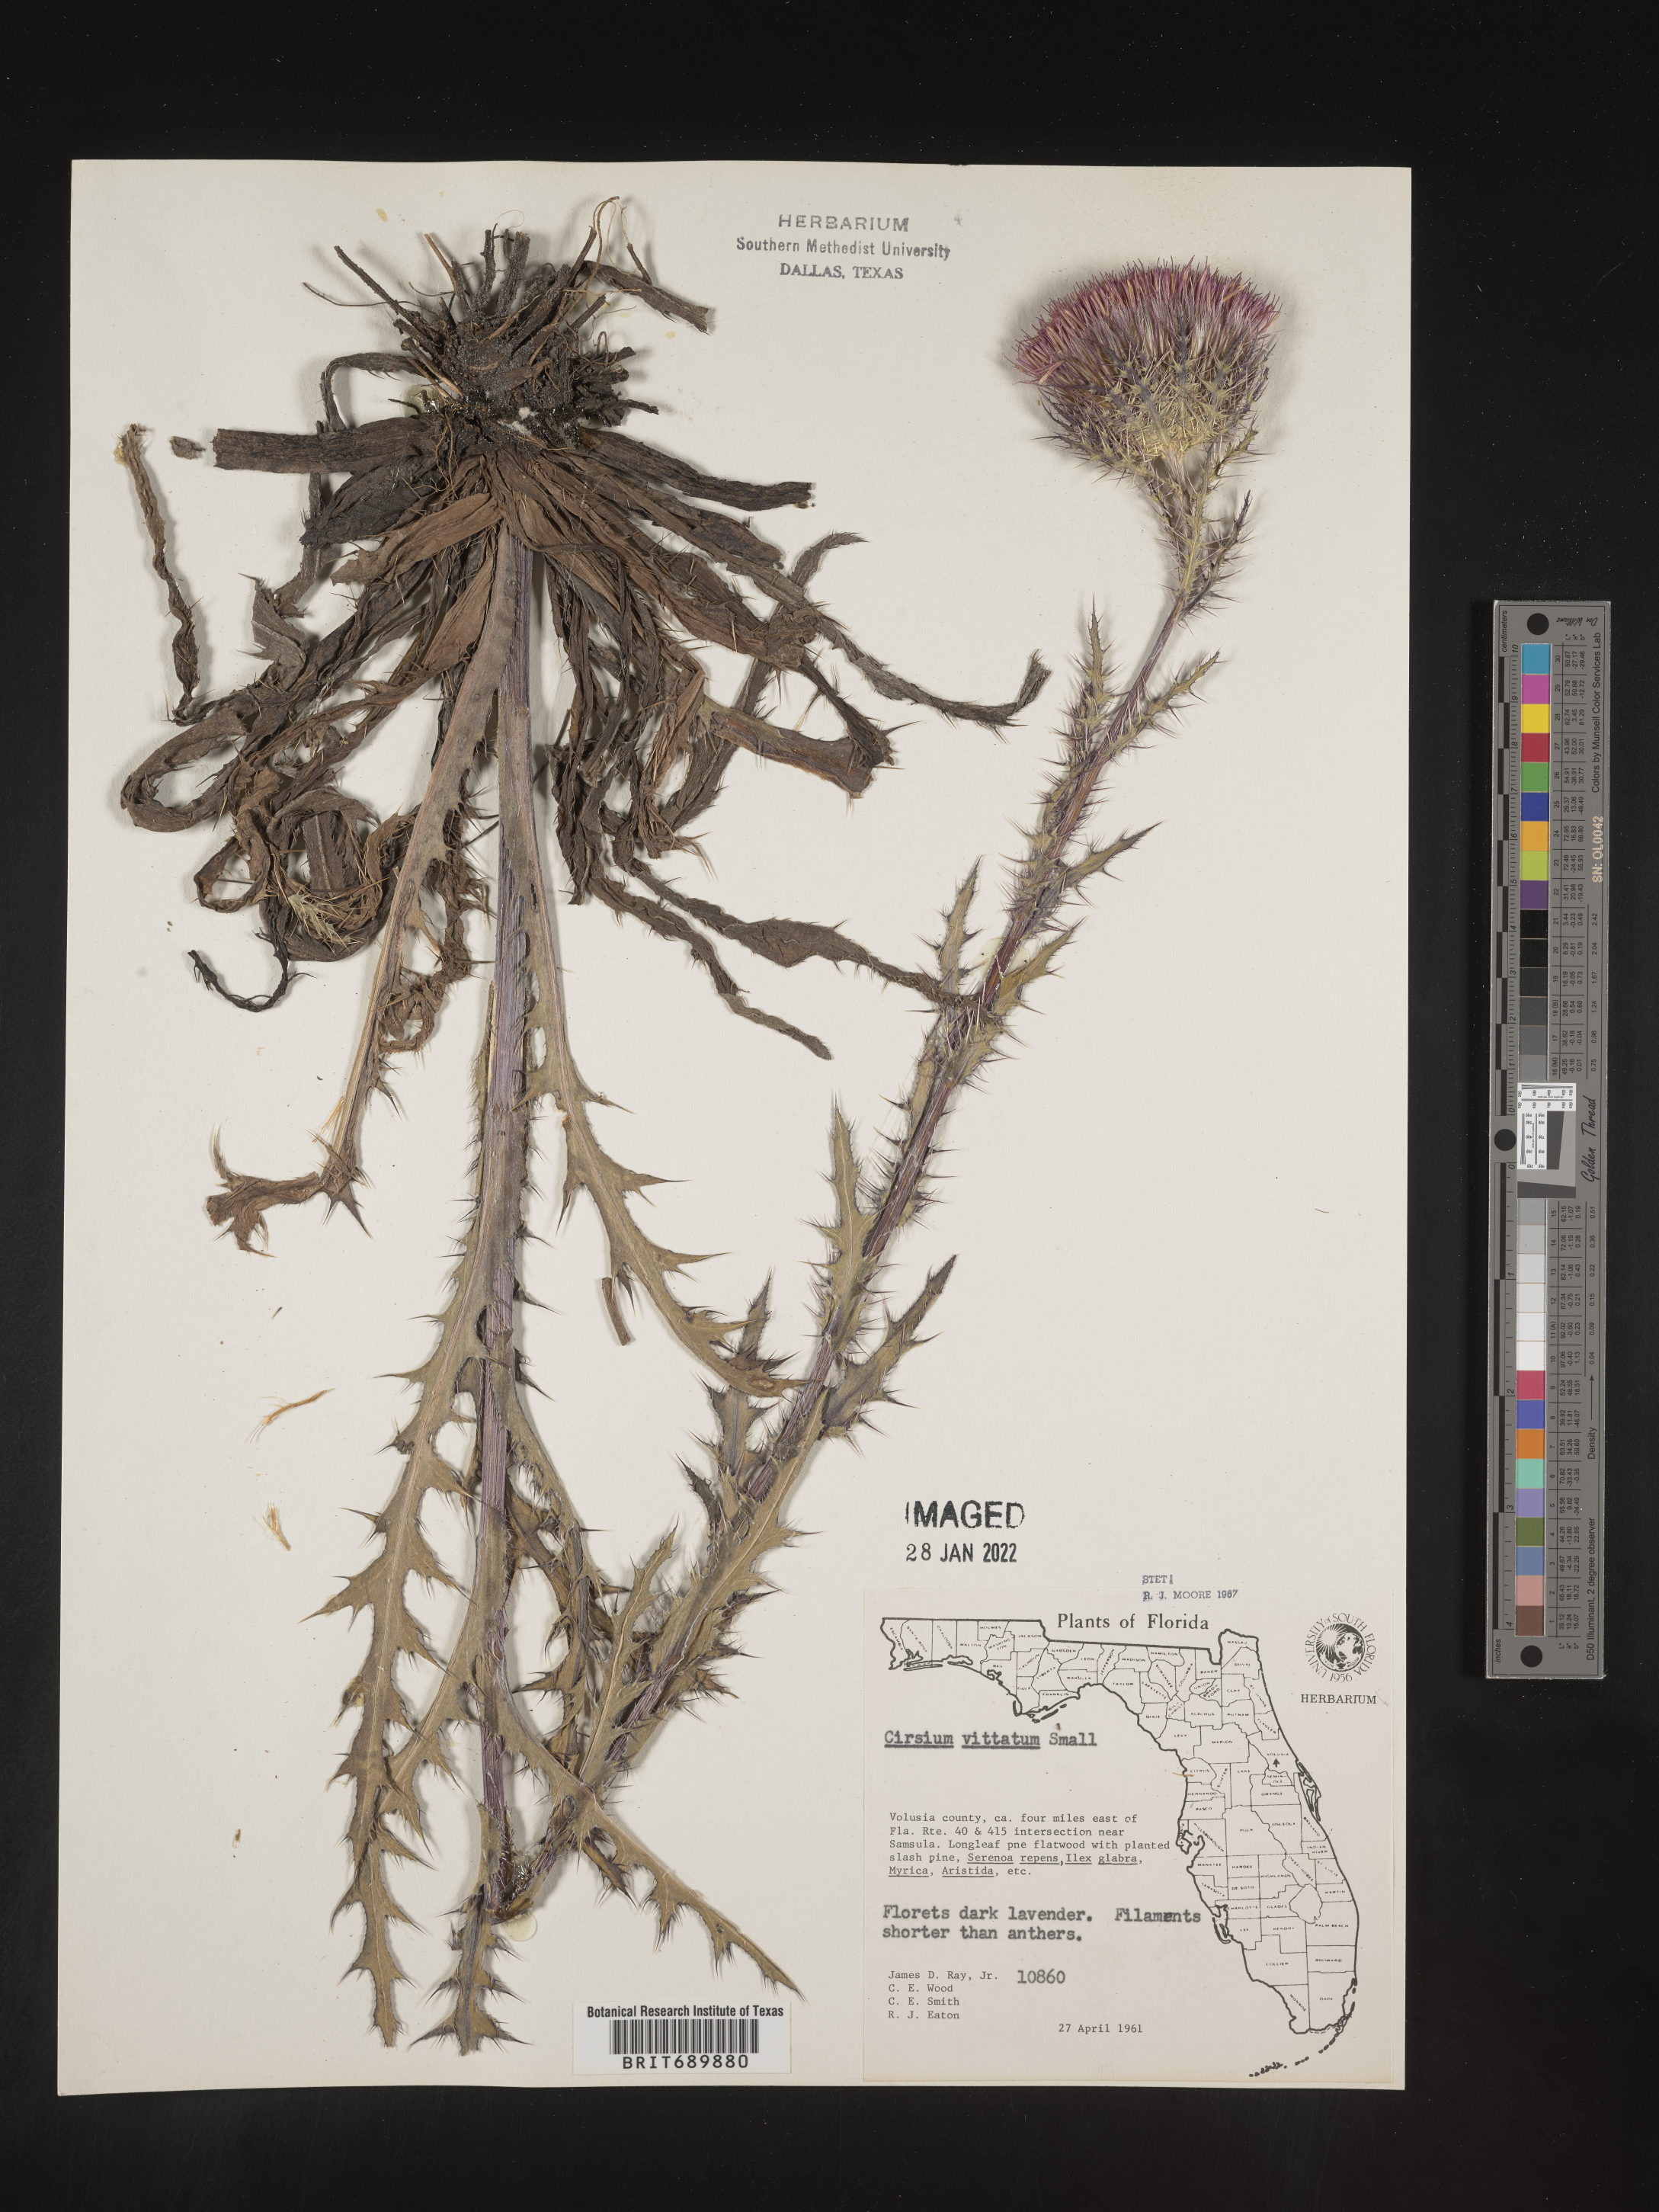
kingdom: Plantae
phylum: Tracheophyta
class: Magnoliopsida
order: Asterales
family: Asteraceae
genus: Cirsium
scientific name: Cirsium
